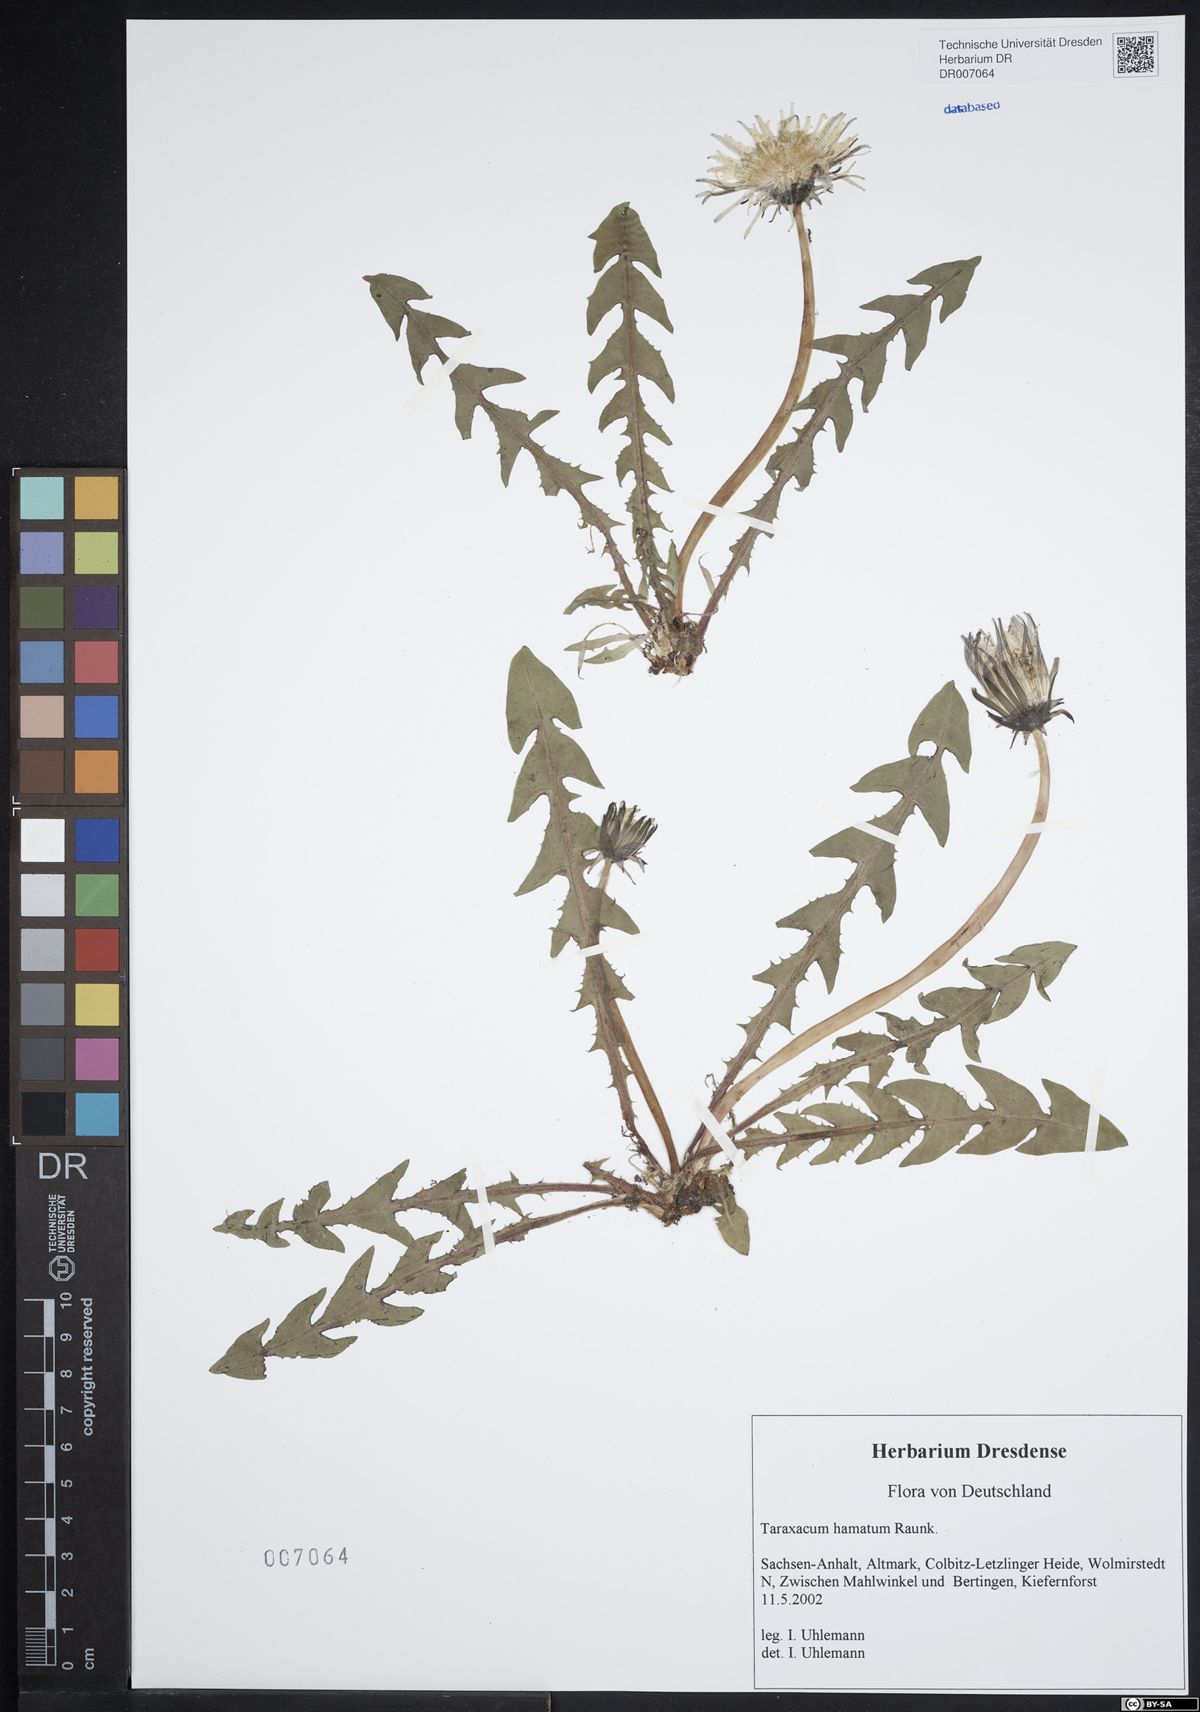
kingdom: Plantae
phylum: Tracheophyta
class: Magnoliopsida
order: Asterales
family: Asteraceae
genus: Taraxacum
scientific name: Taraxacum hamatum
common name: Hook-lobed dandelion
